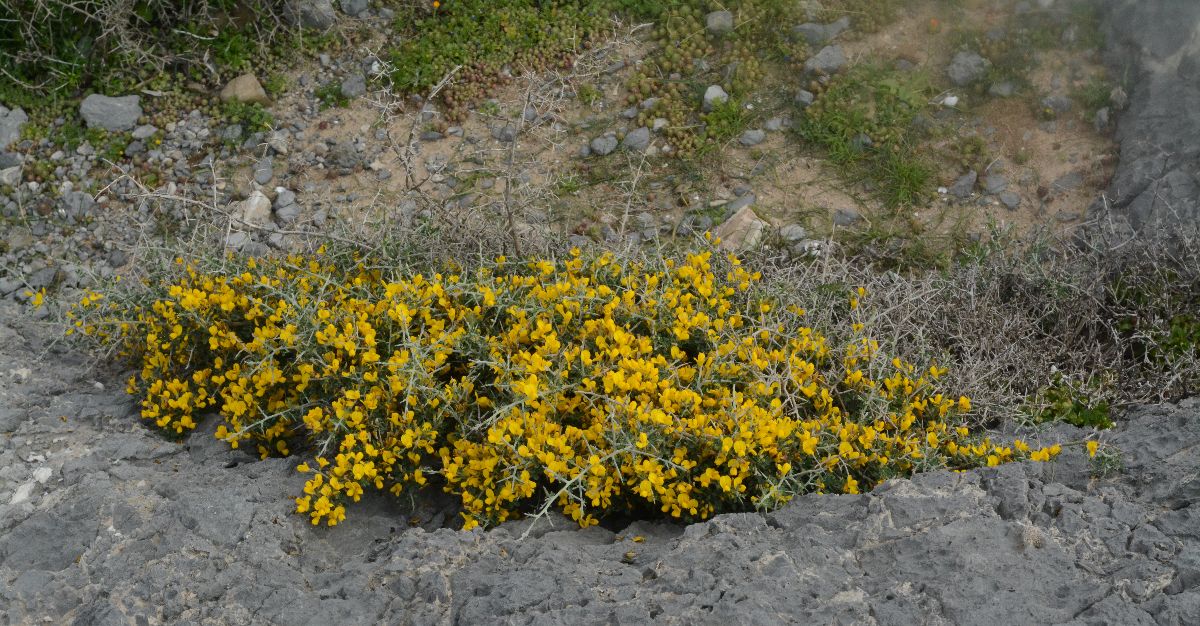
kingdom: Plantae
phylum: Tracheophyta
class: Magnoliopsida
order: Fabales
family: Fabaceae
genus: Calicotome
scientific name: Calicotome villosa
